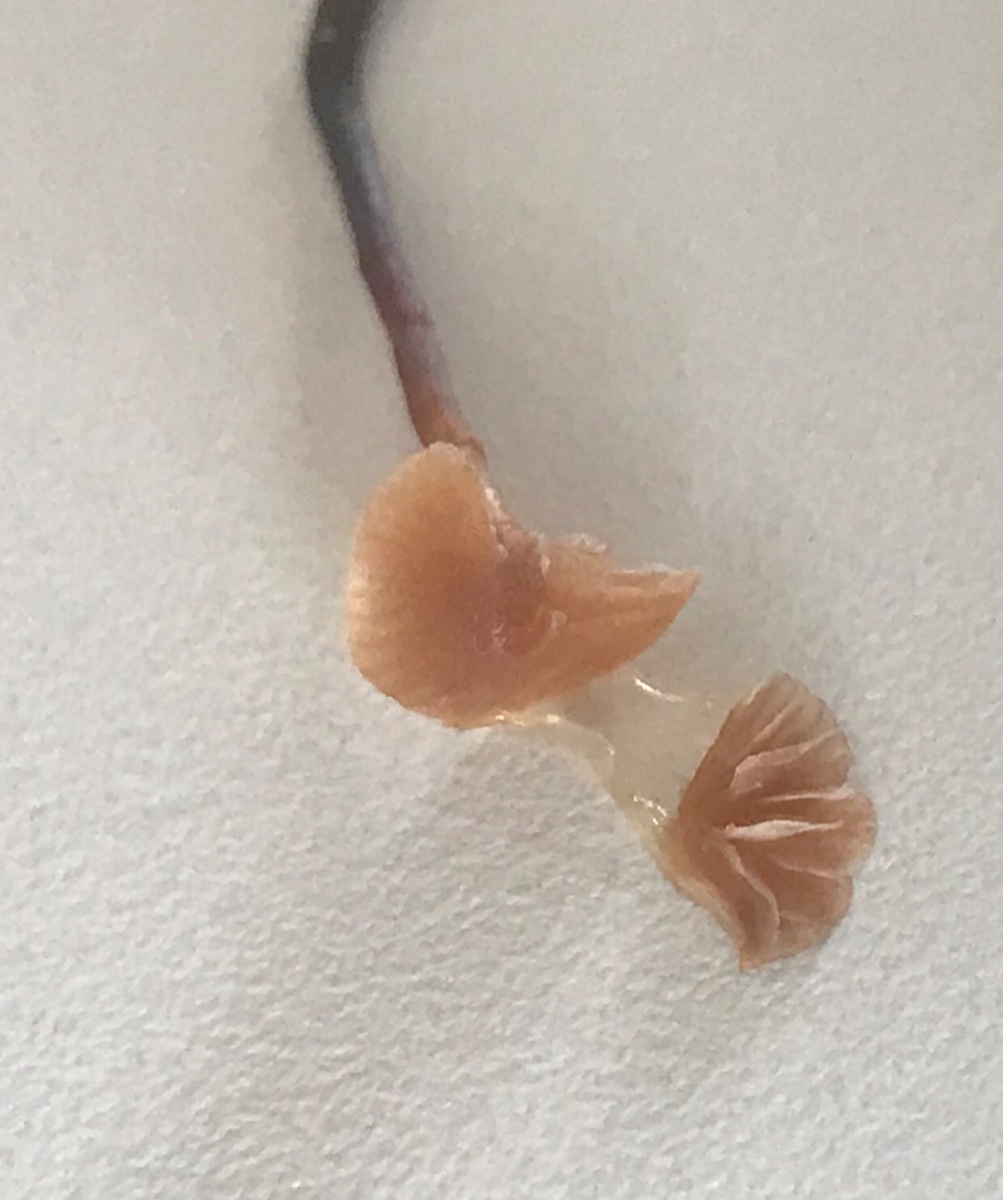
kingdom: Fungi
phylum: Basidiomycota
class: Agaricomycetes
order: Agaricales
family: Strophariaceae
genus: Deconica
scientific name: Deconica inquilina
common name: græs-stråhat
